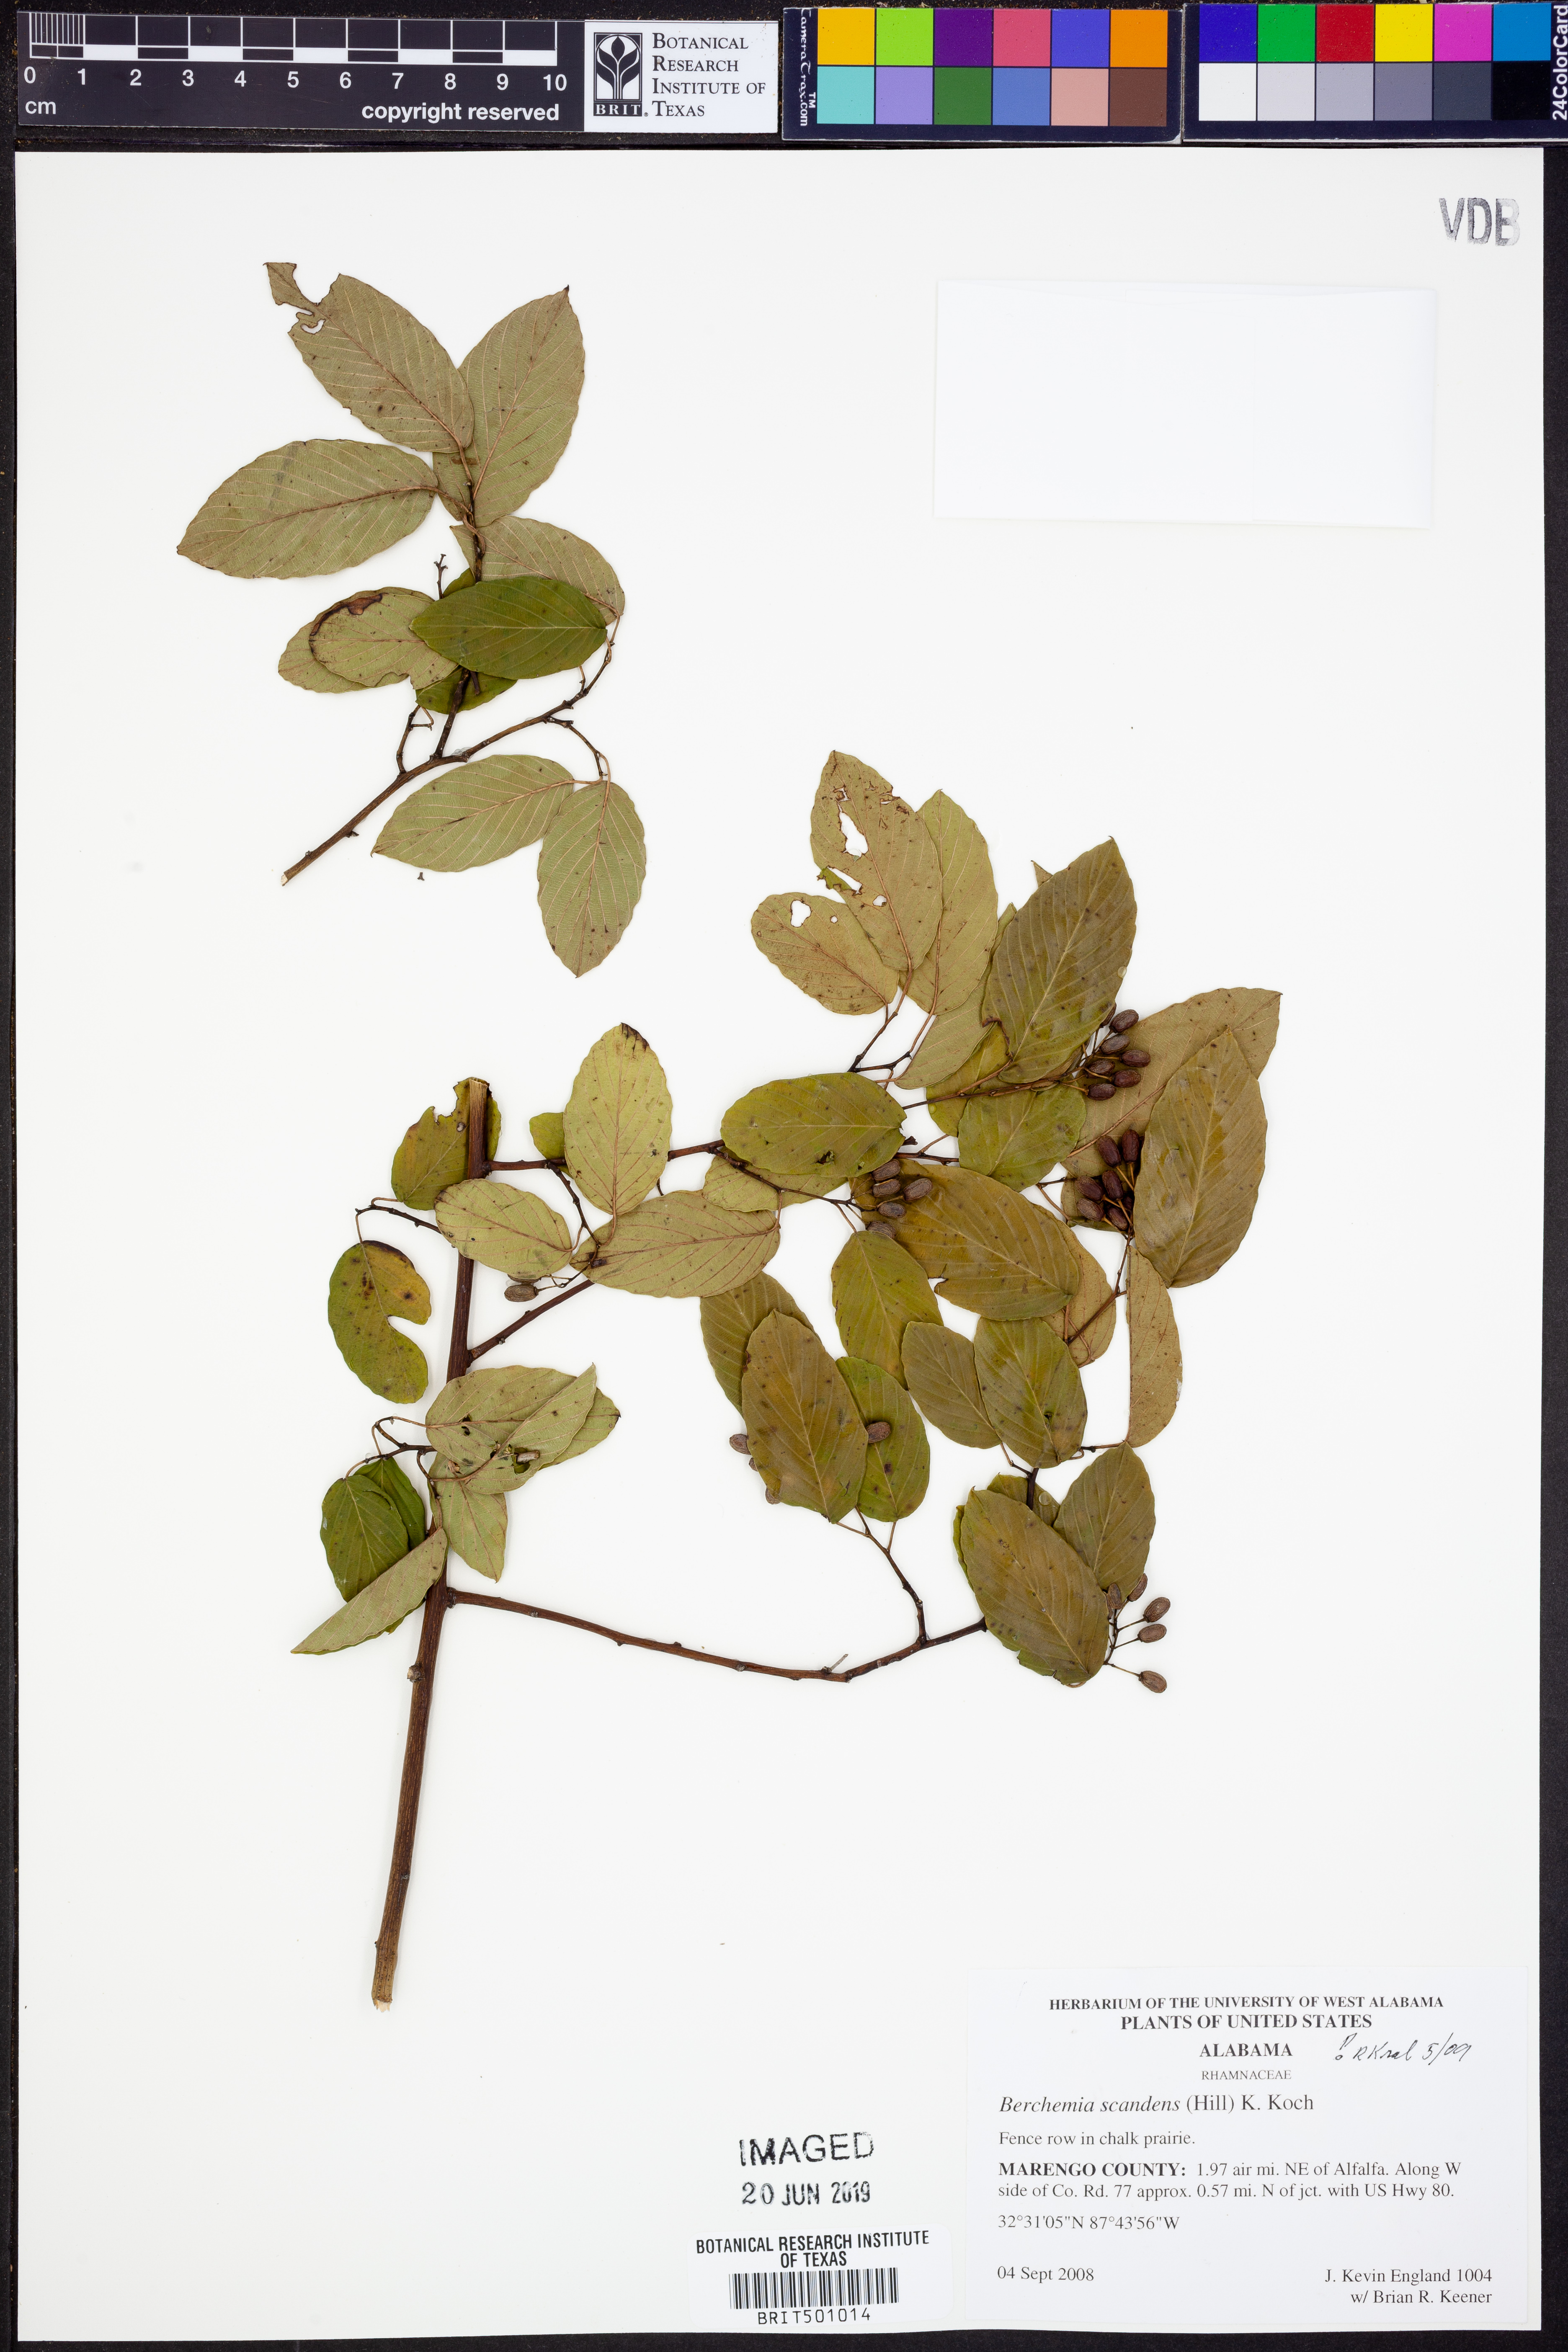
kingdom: Plantae
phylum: Tracheophyta
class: Magnoliopsida
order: Rosales
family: Rhamnaceae
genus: Berchemia
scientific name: Berchemia scandens
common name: Supplejack
